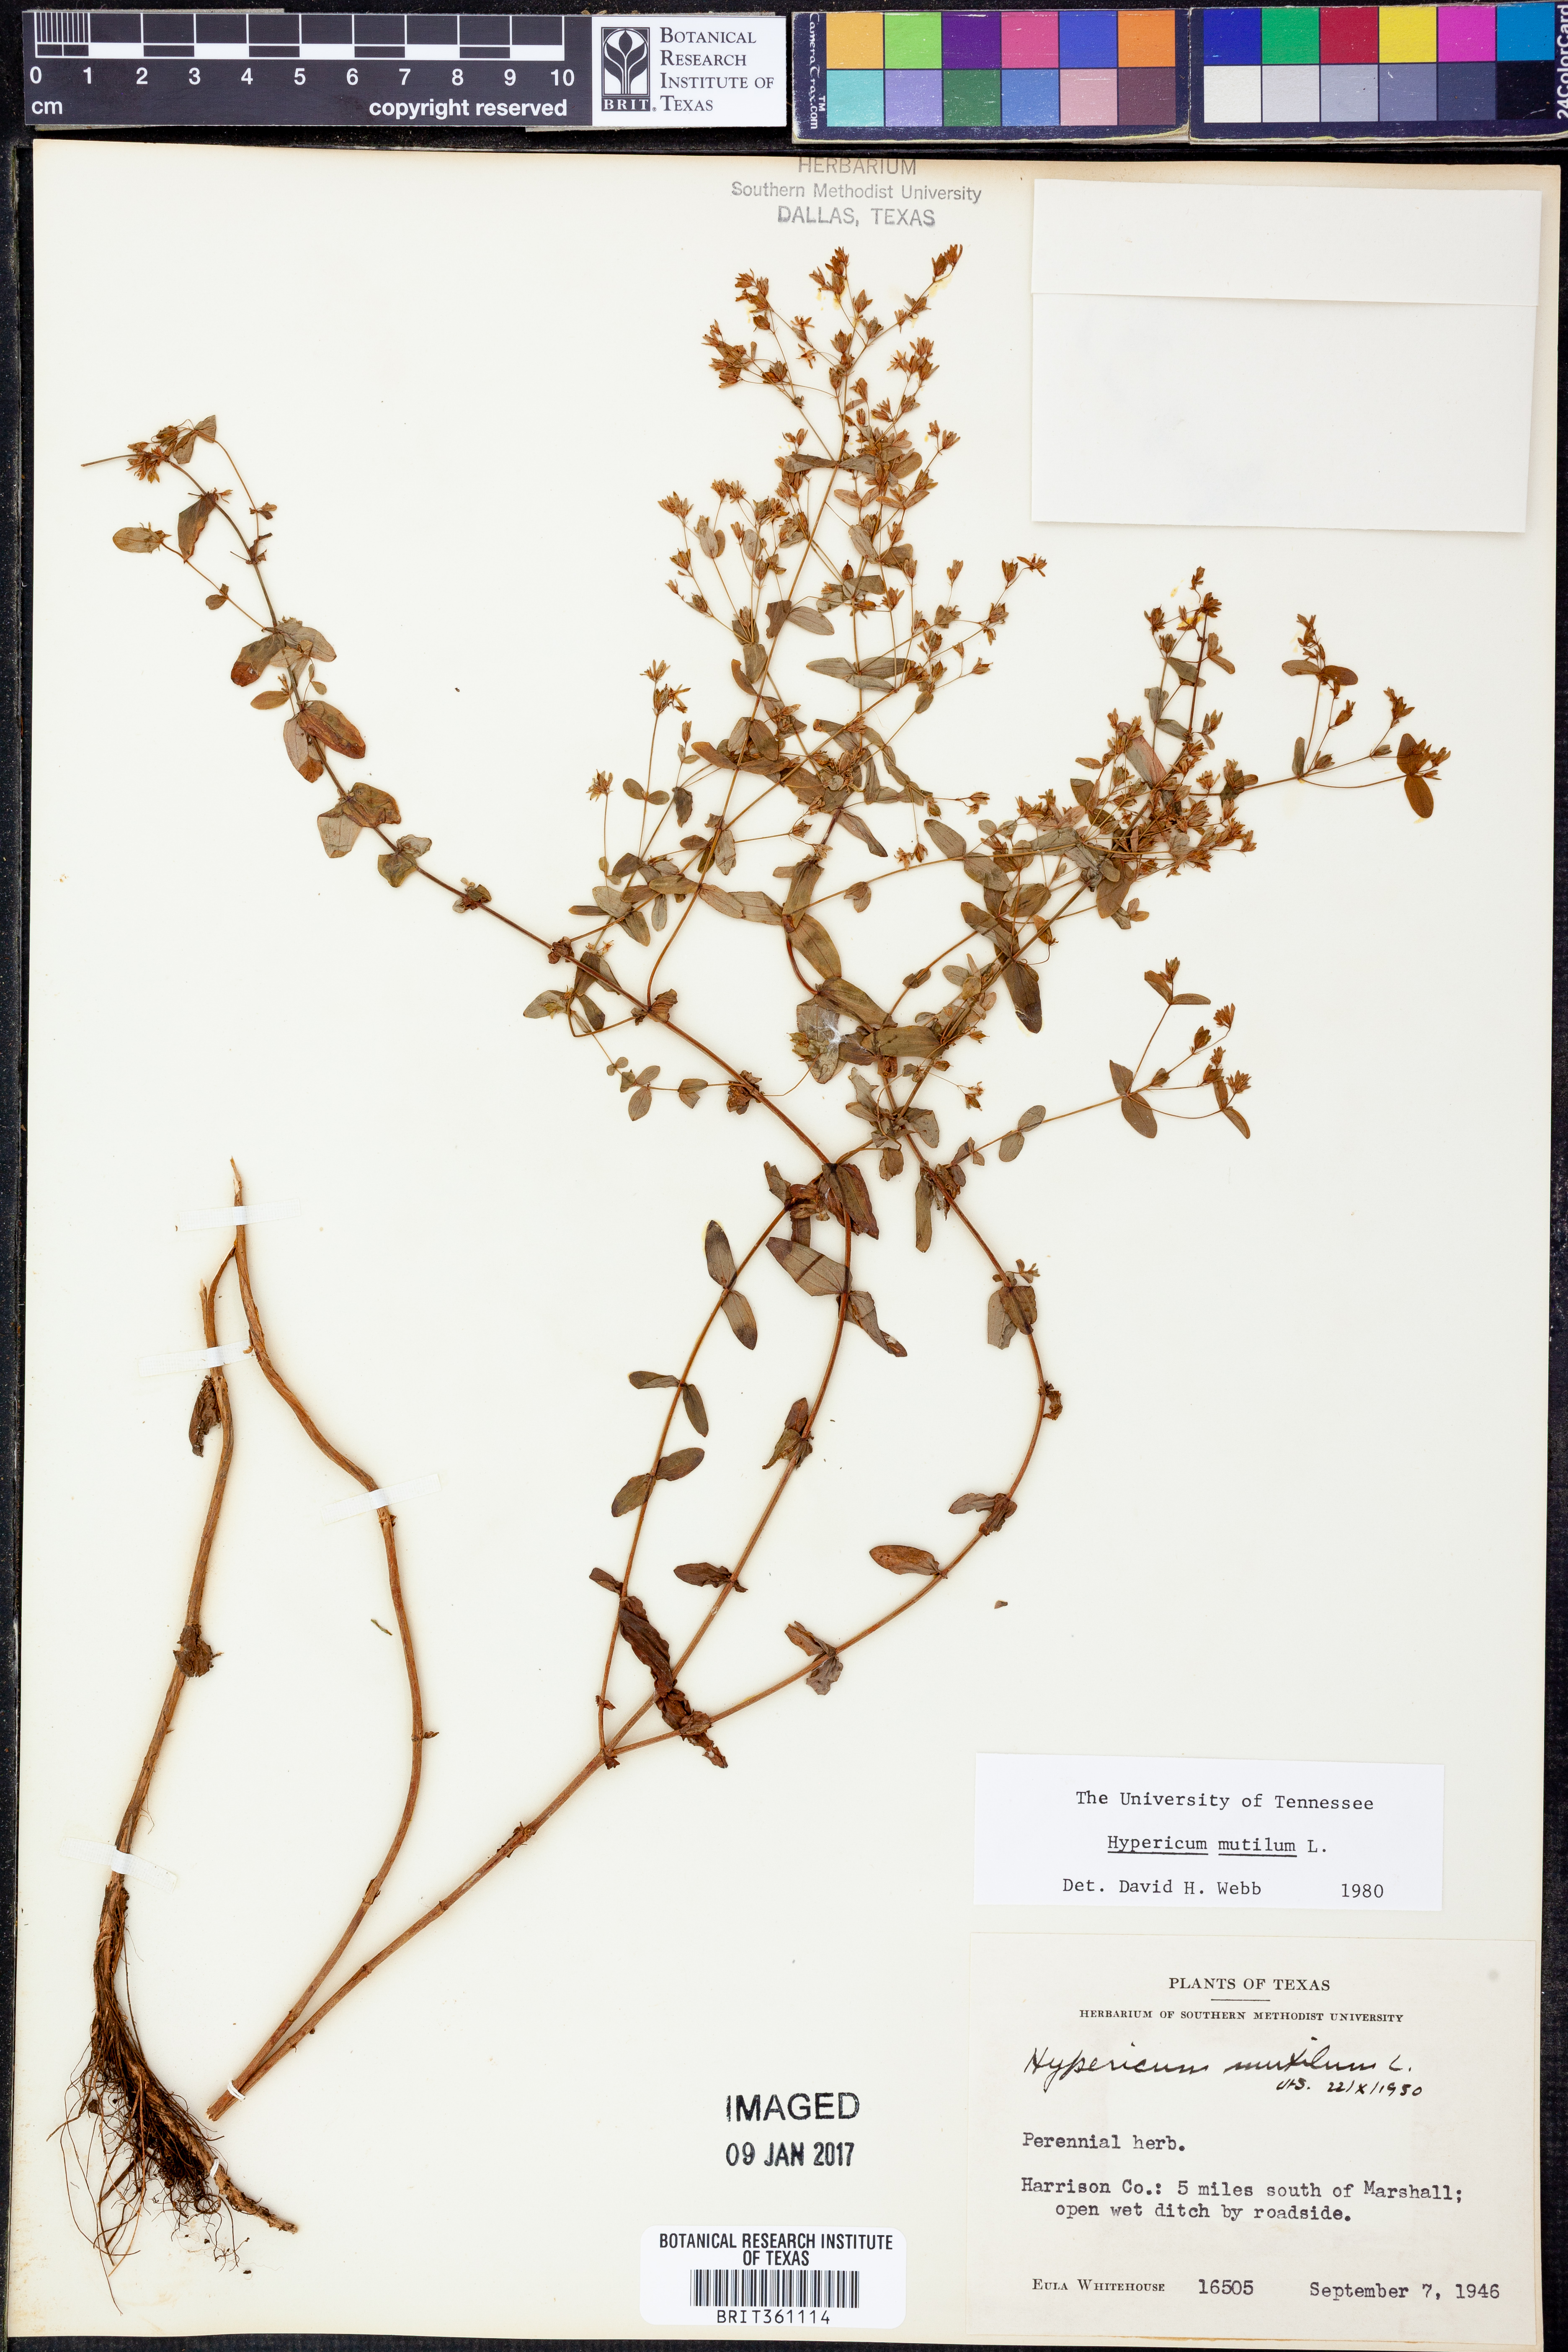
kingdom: Plantae
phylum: Tracheophyta
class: Magnoliopsida
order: Malpighiales
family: Hypericaceae
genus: Hypericum
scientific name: Hypericum mutilum
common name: Dwarf st. john's-wort
